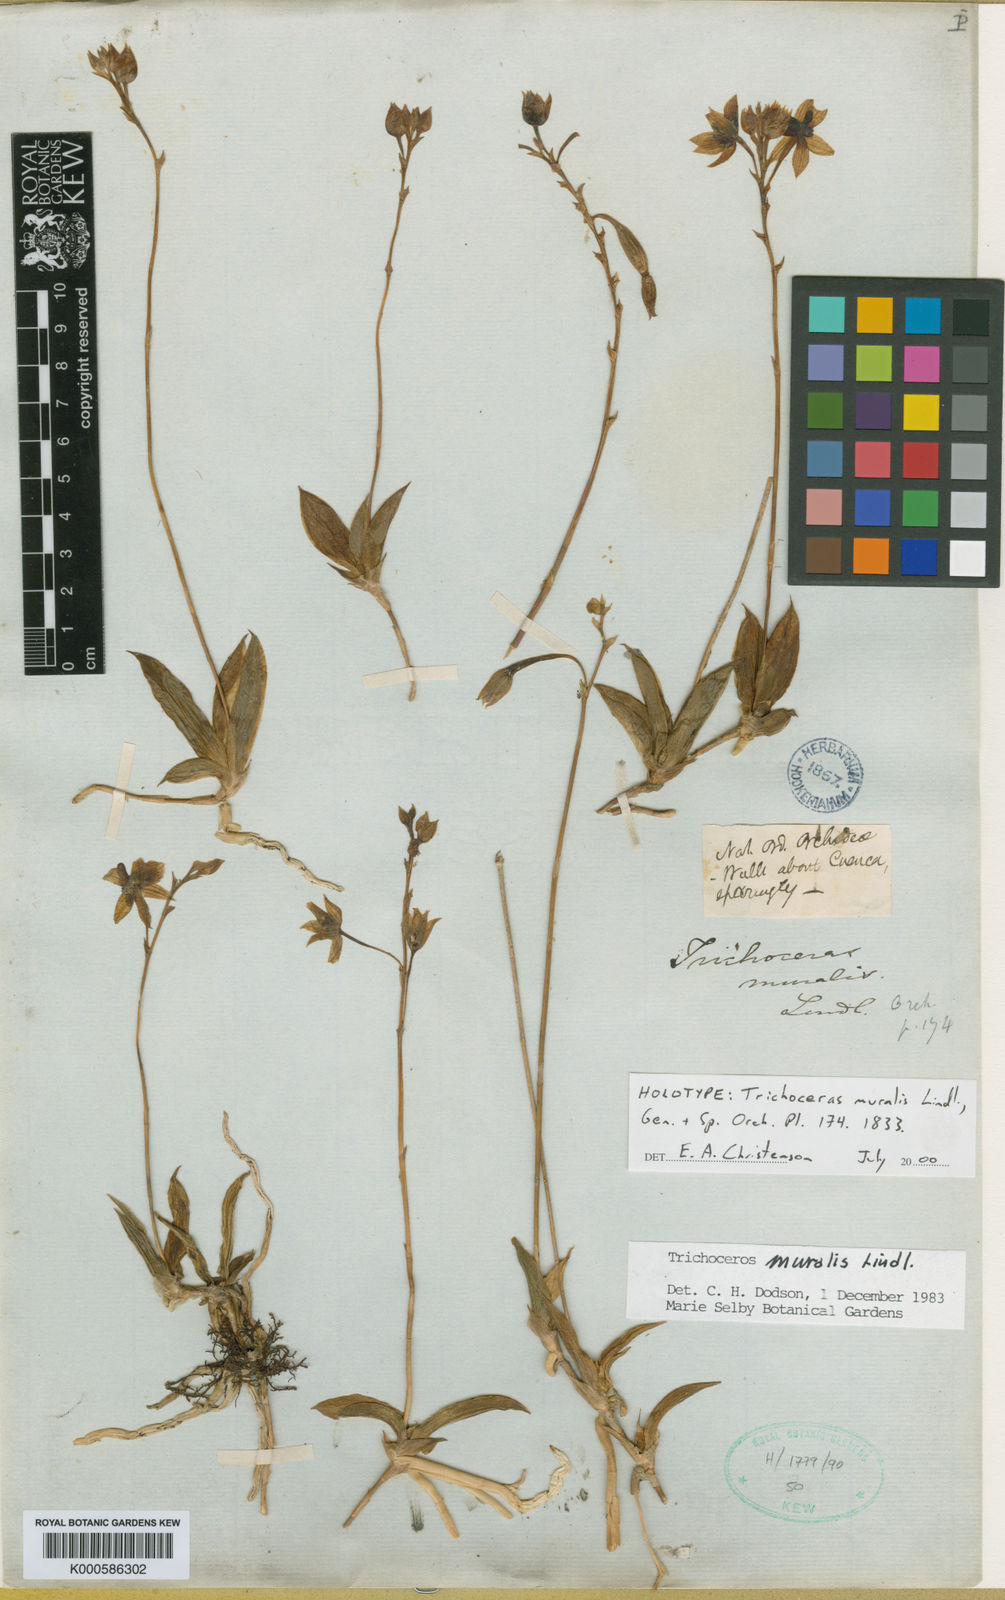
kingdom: Plantae
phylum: Tracheophyta
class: Liliopsida
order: Asparagales
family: Orchidaceae
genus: Trichoceros
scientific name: Trichoceros muralis
